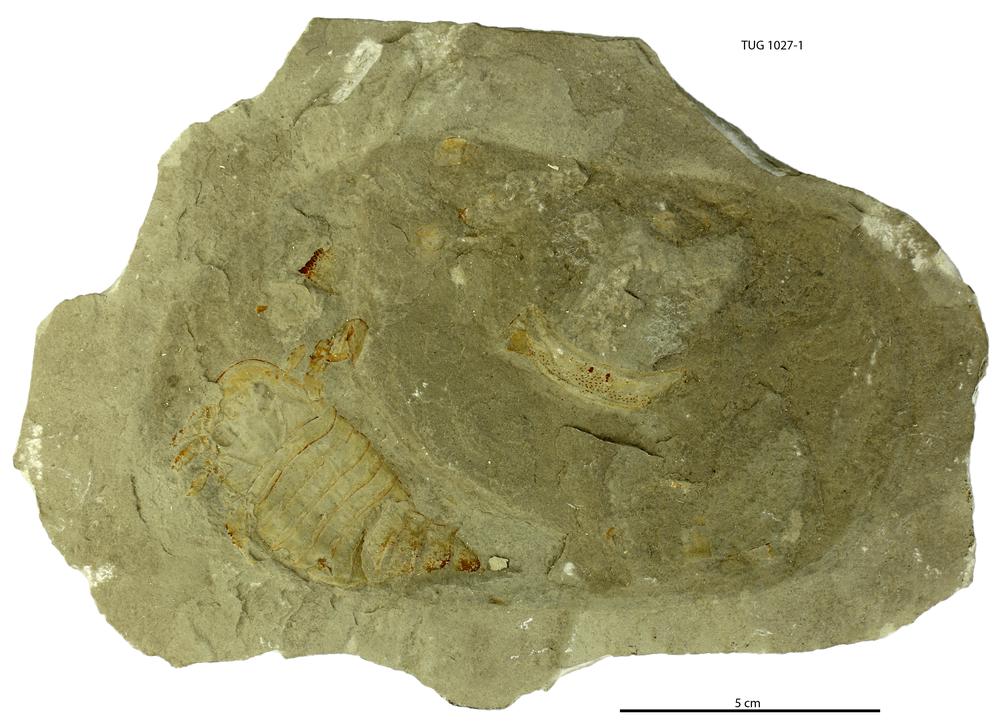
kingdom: Animalia
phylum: Arthropoda
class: Merostomata
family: Eurypteridae
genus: Eurypterus
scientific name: Eurypterus tetragonophthalmus
